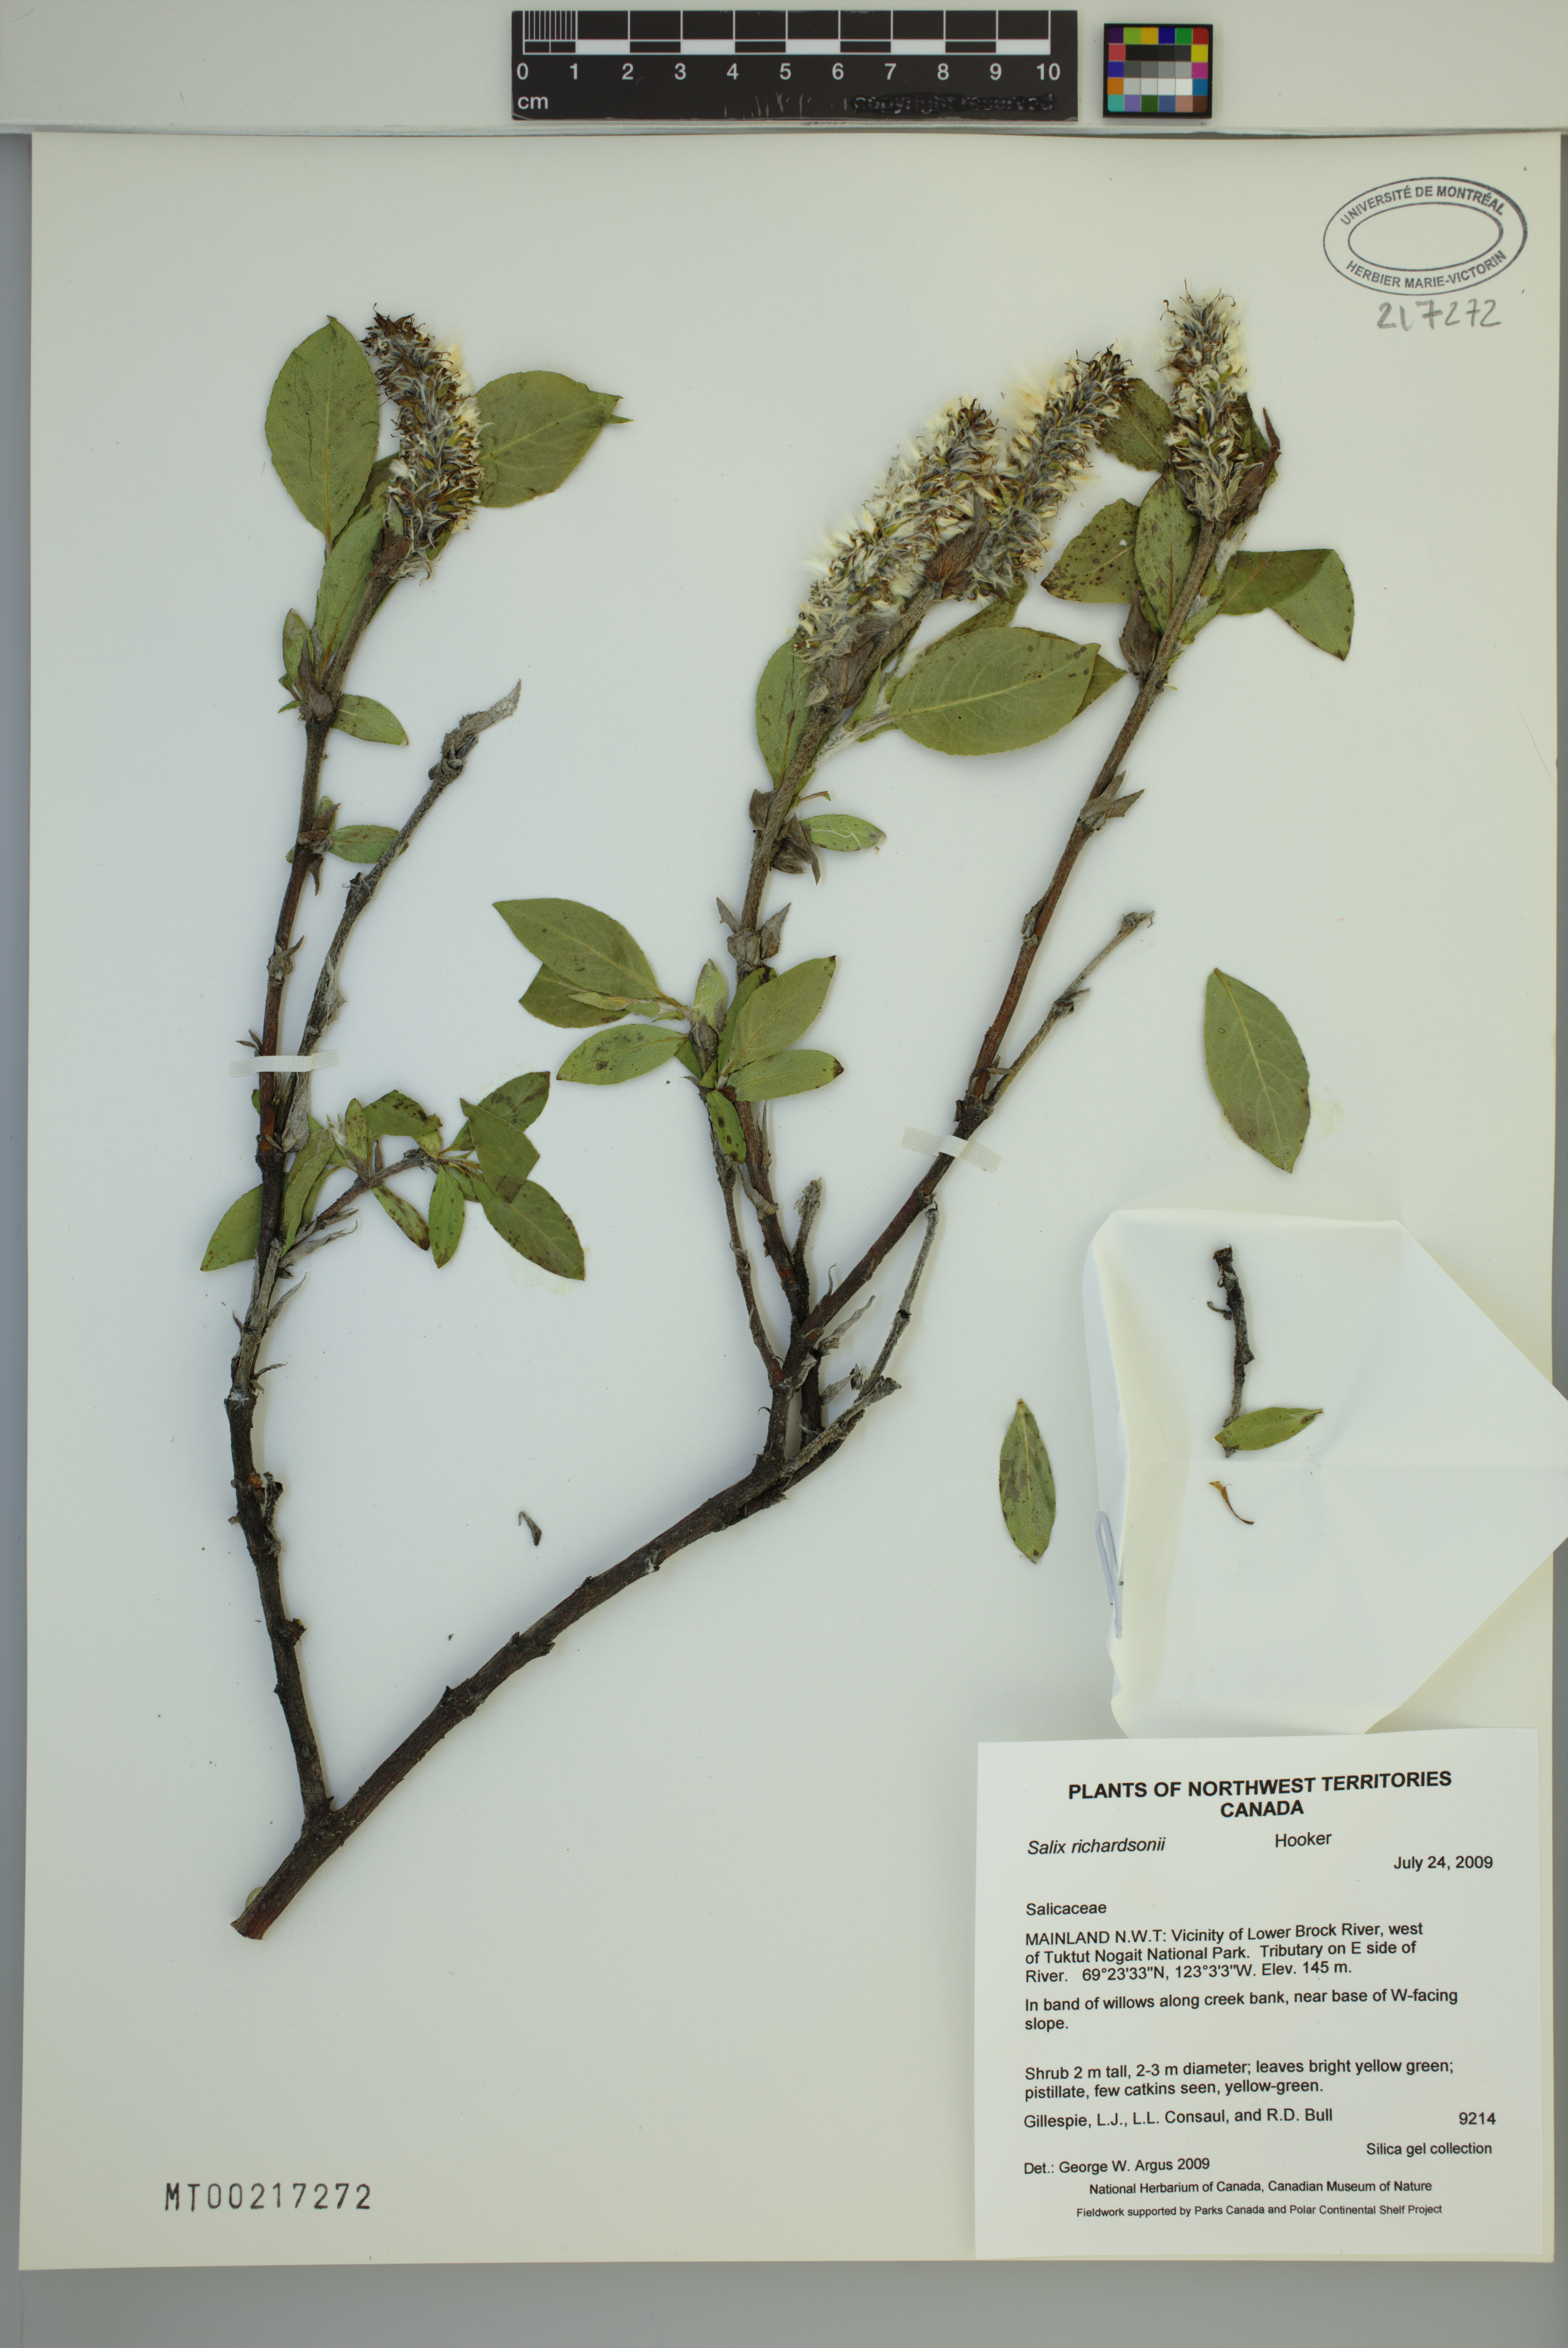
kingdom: Plantae
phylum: Tracheophyta
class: Magnoliopsida
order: Malpighiales
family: Salicaceae
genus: Salix
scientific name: Salix richardsonii
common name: Richardson’s willow
